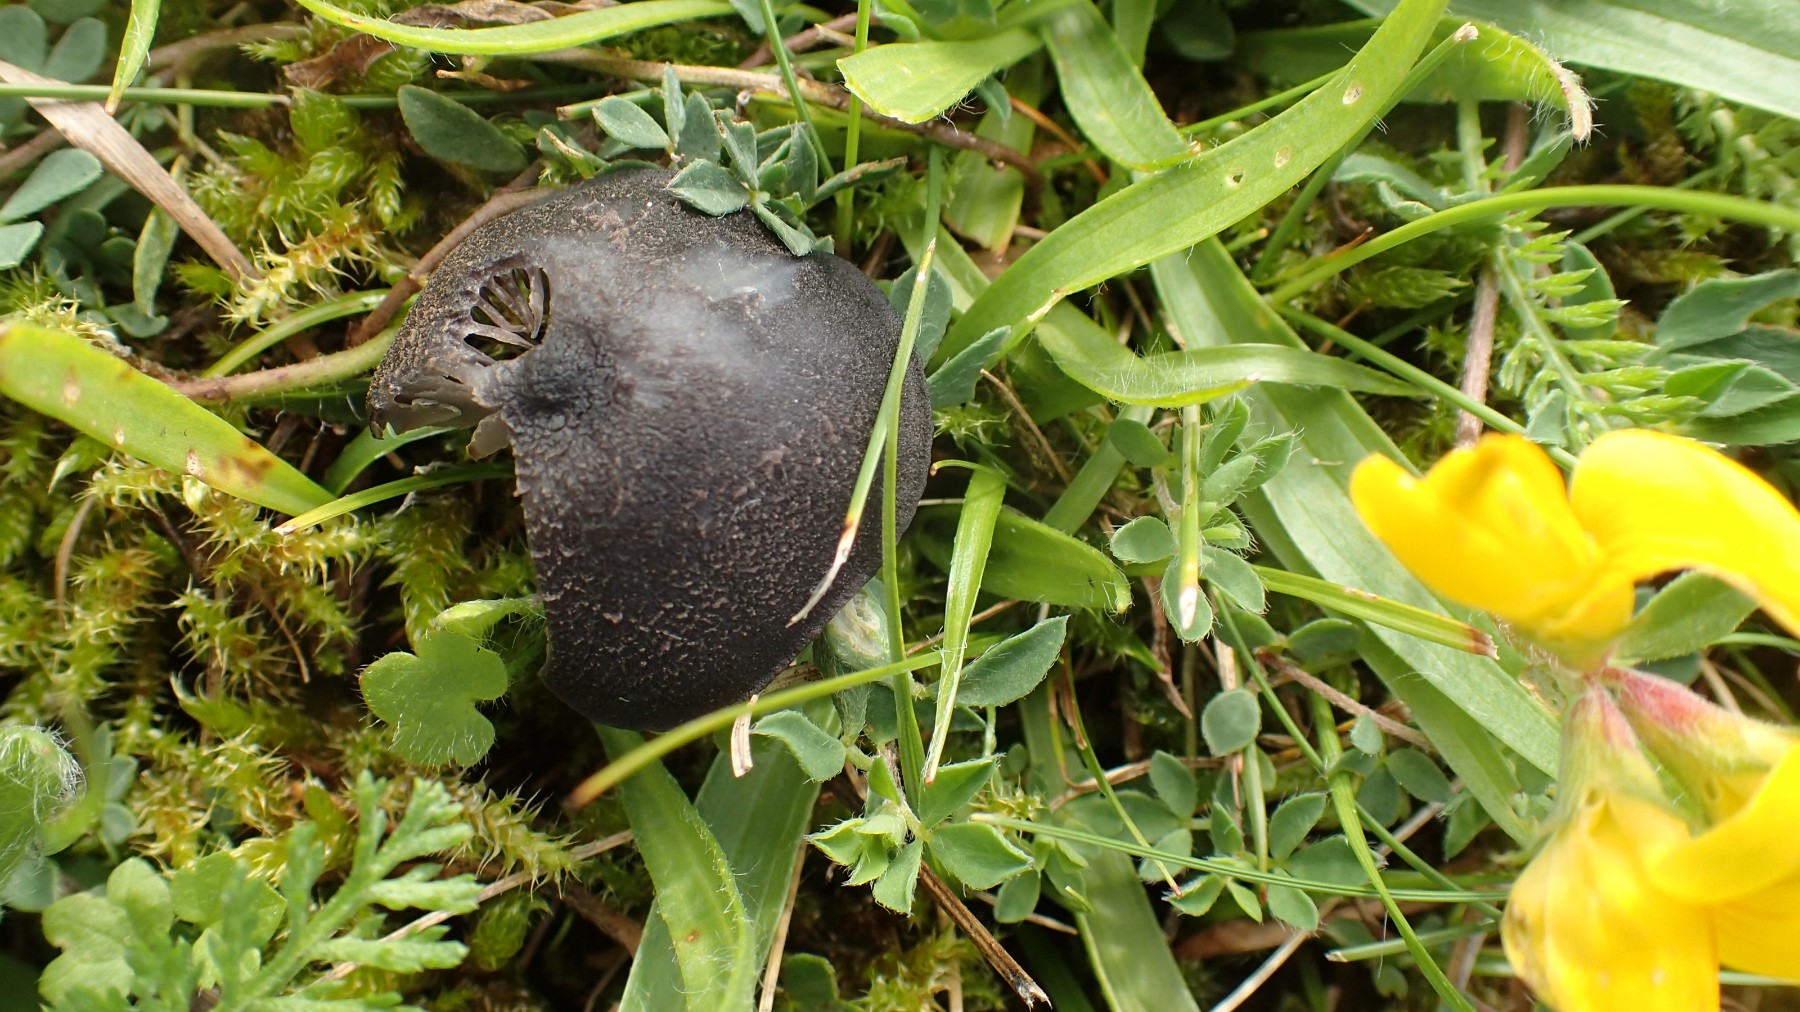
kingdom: Fungi
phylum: Basidiomycota
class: Agaricomycetes
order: Agaricales
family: Entolomataceae
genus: Entoloma
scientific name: Entoloma
